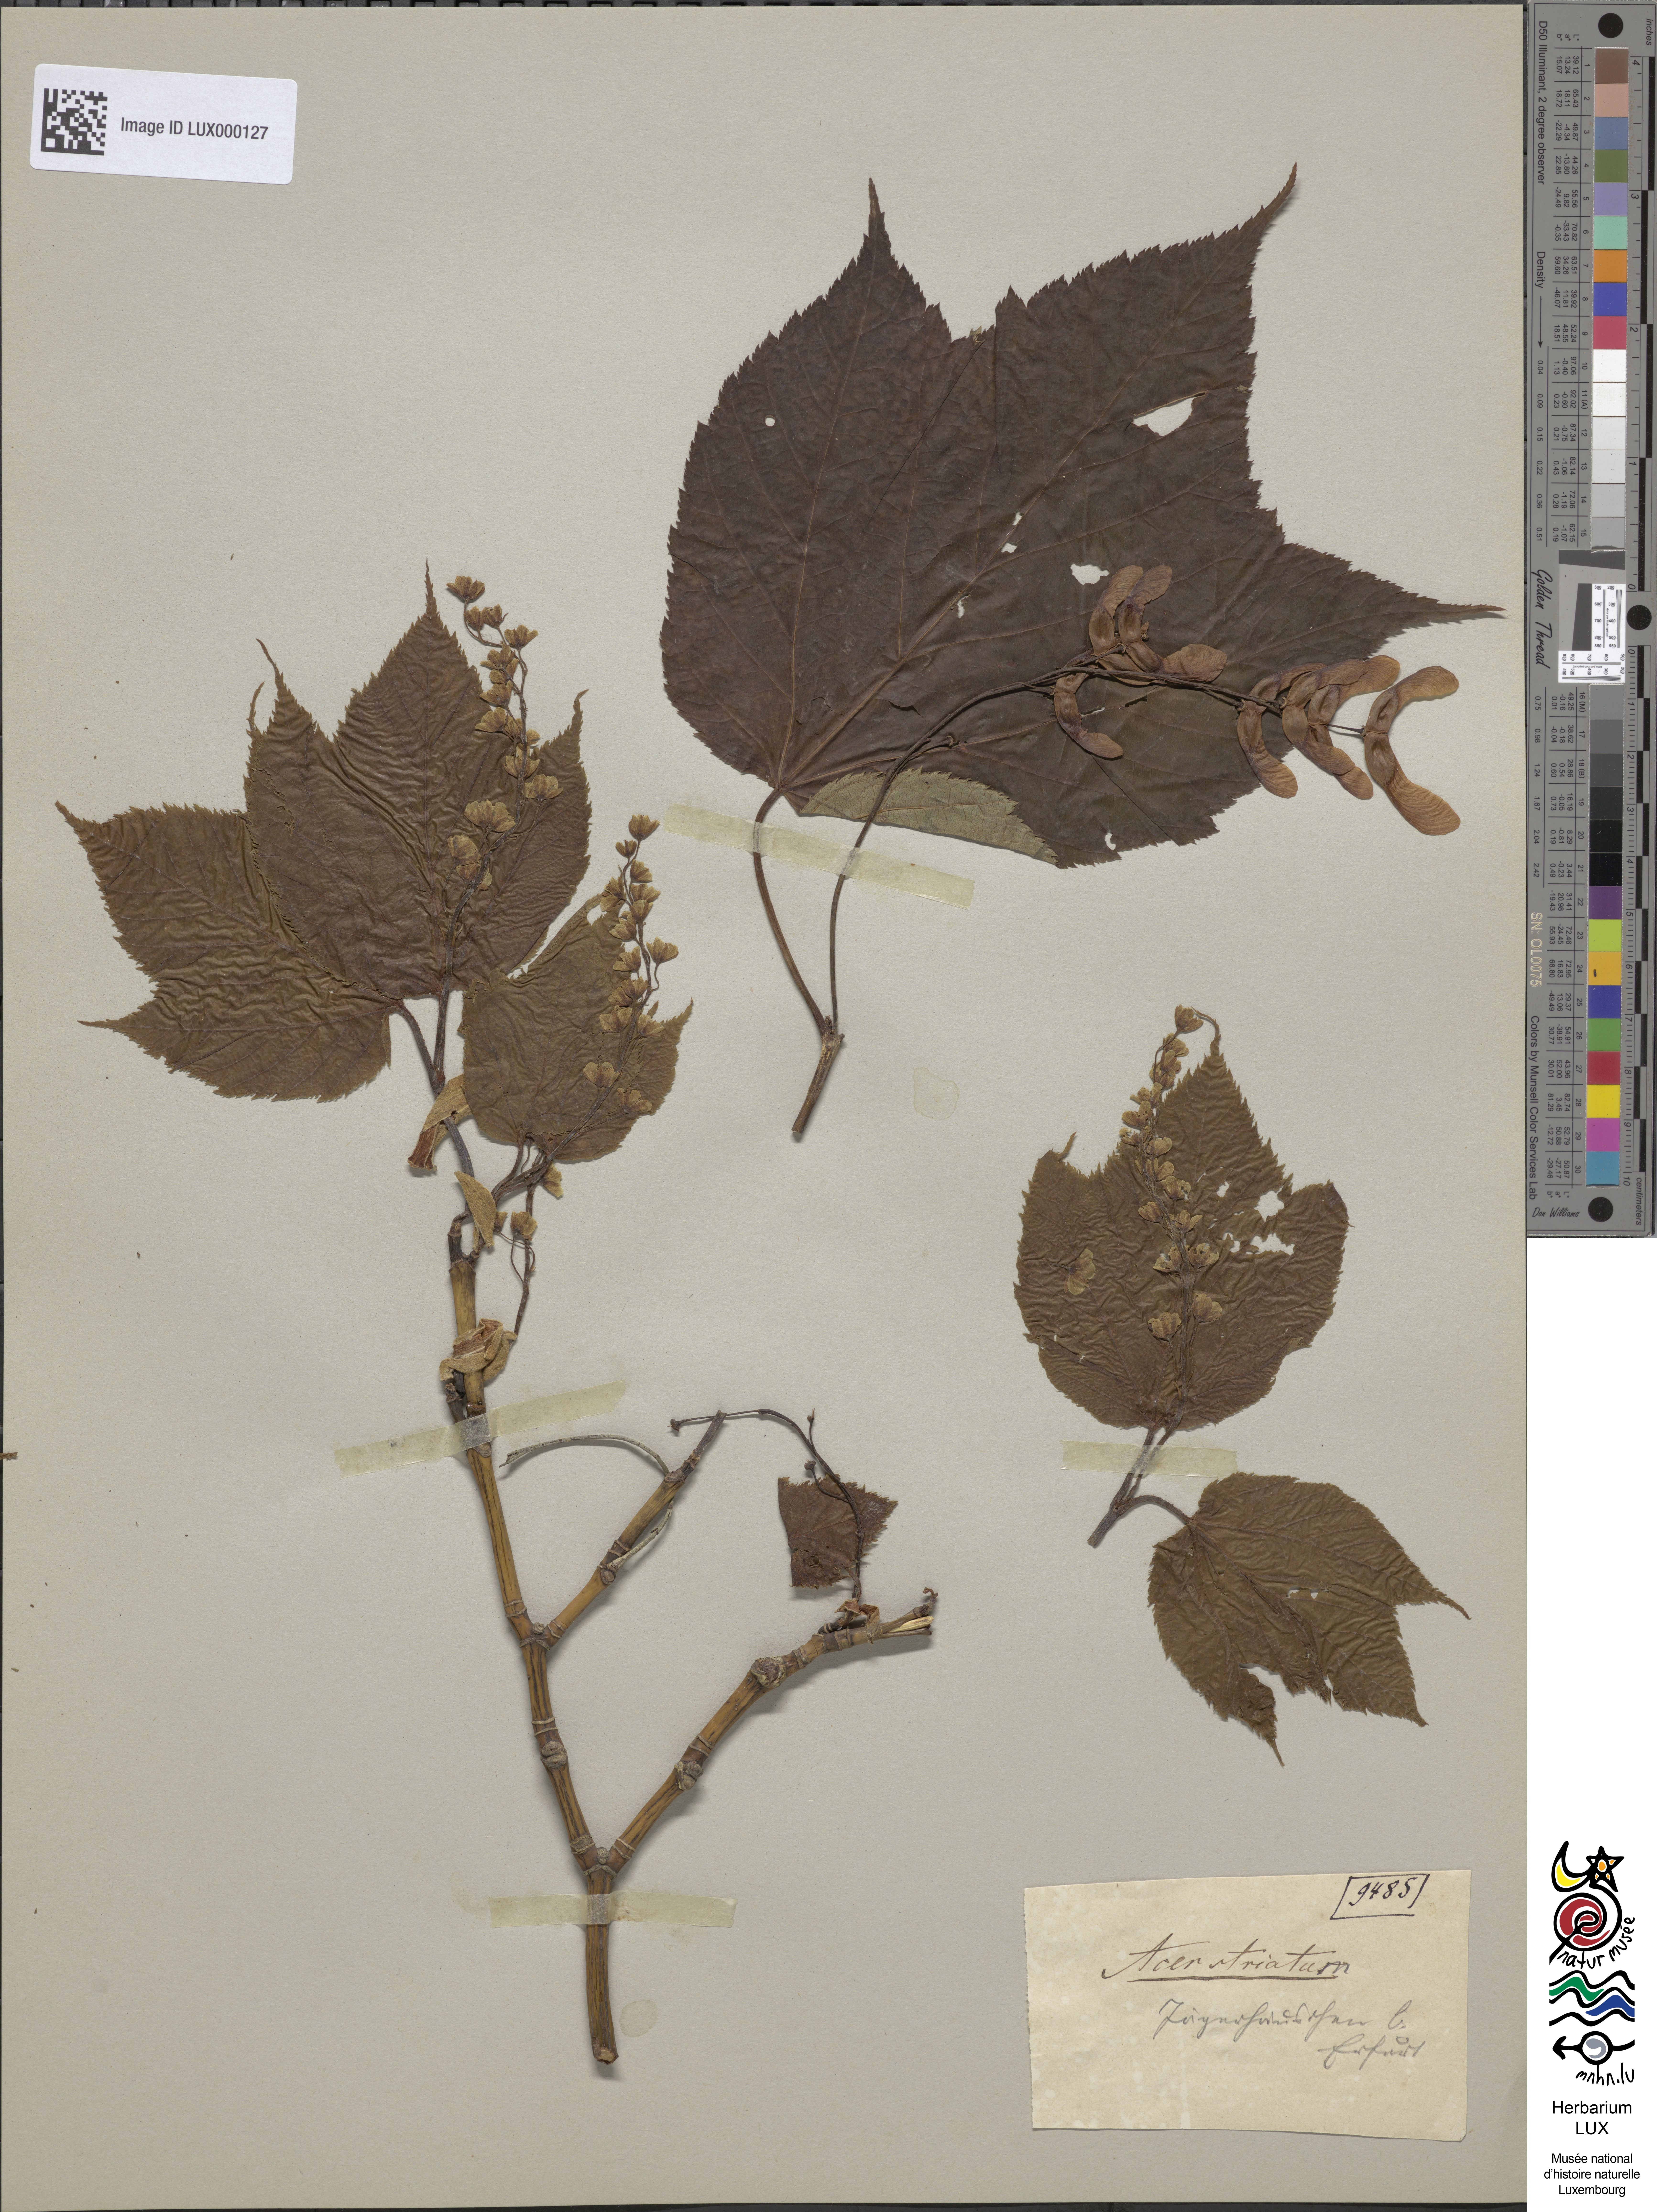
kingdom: Plantae
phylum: Tracheophyta
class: Magnoliopsida
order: Sapindales
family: Sapindaceae
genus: Acer
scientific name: Acer pensylvanicum
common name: Moosewood
